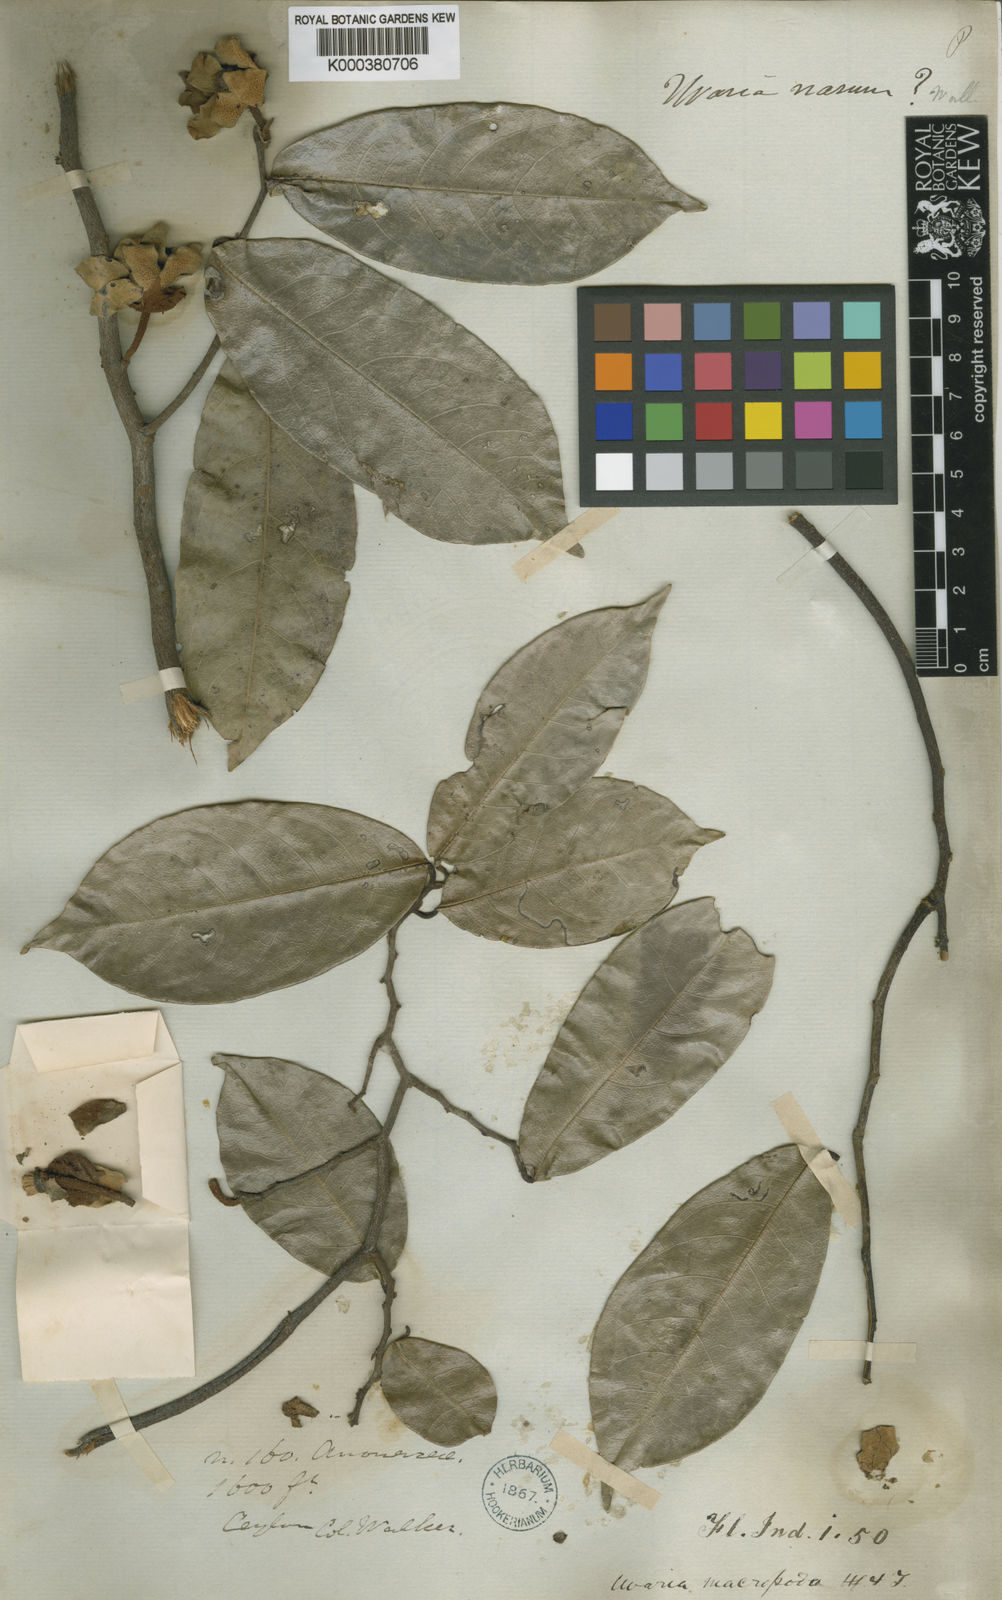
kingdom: Plantae
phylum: Tracheophyta
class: Magnoliopsida
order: Magnoliales
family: Annonaceae
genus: Uvaria
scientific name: Uvaria macropoda
